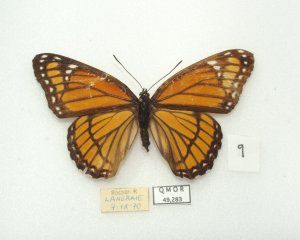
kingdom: Animalia
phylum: Arthropoda
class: Insecta
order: Lepidoptera
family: Nymphalidae
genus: Limenitis
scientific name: Limenitis archippus
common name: Viceroy
